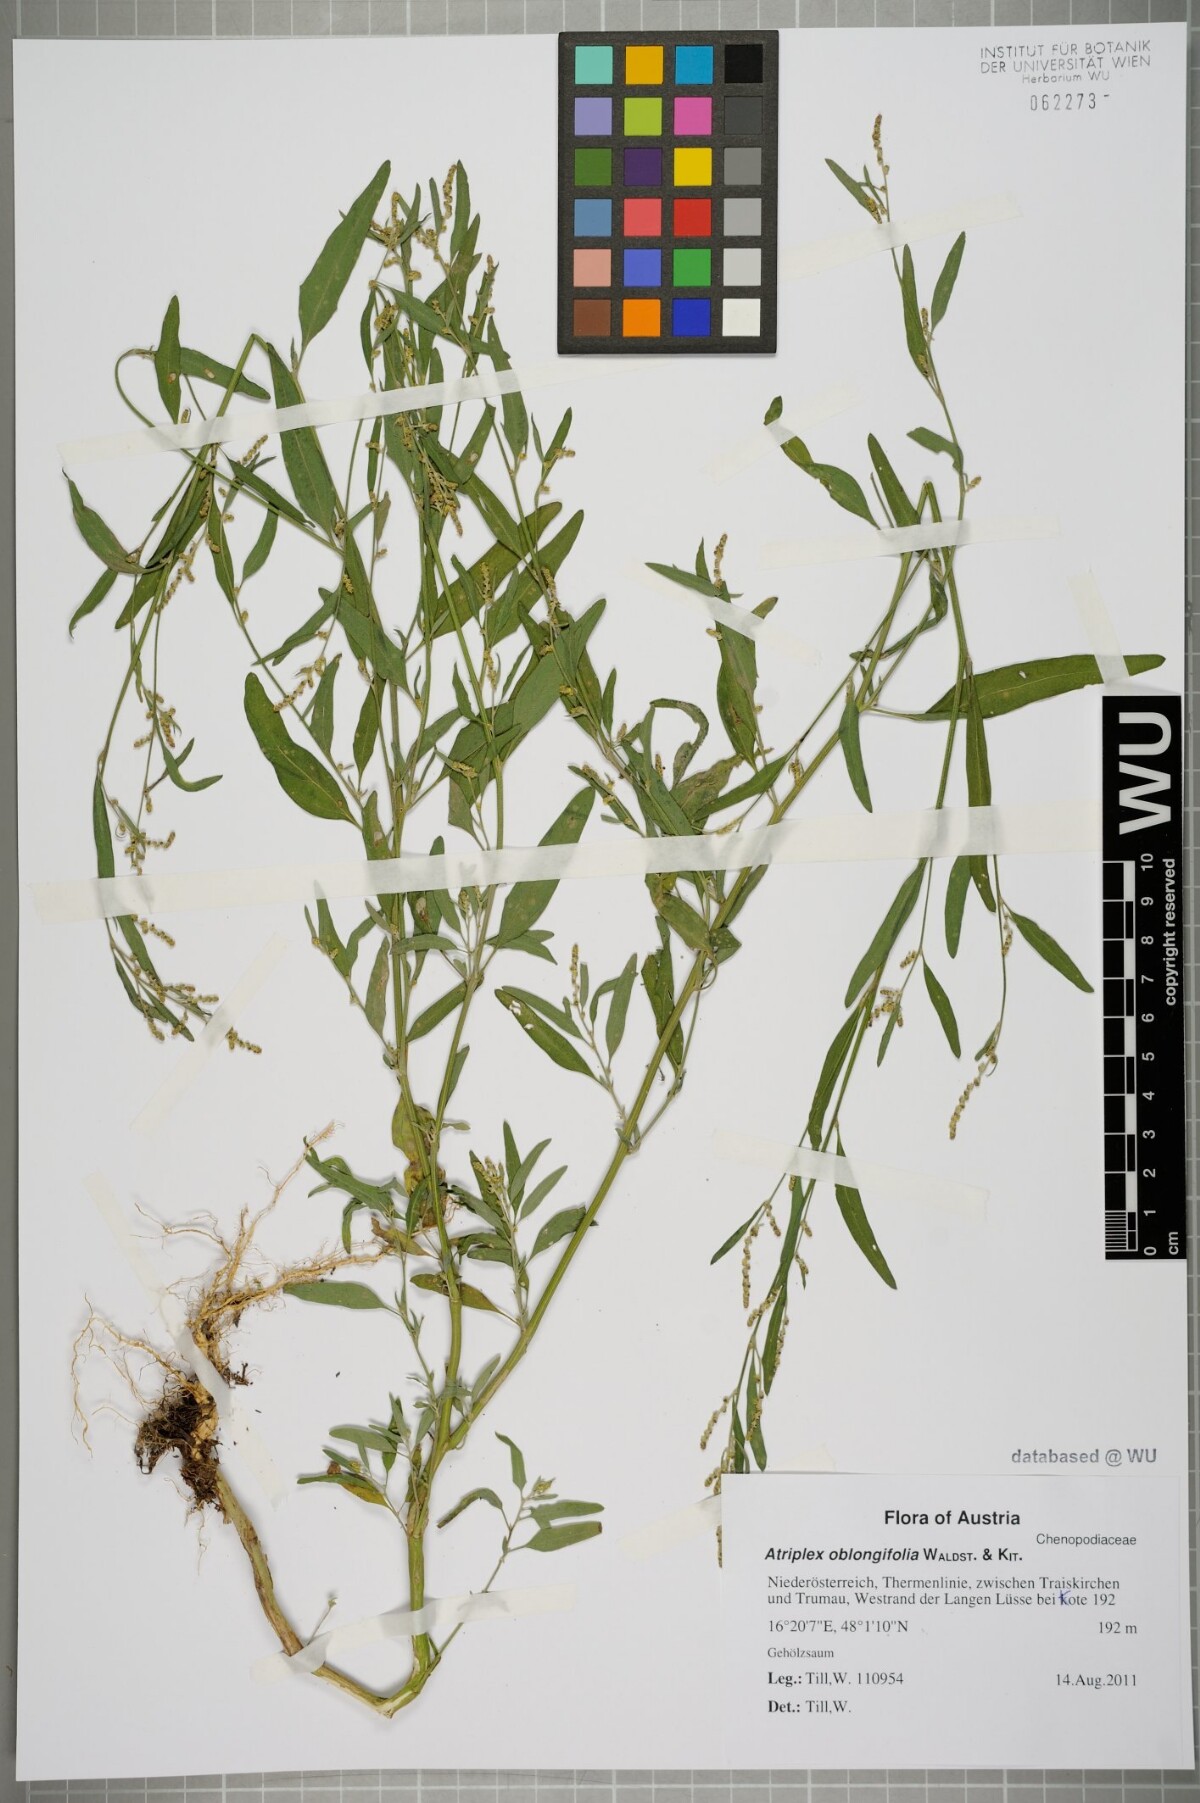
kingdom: Plantae
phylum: Tracheophyta
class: Magnoliopsida
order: Caryophyllales
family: Amaranthaceae
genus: Atriplex
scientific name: Atriplex oblongifolia
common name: Oblongleaf orache
